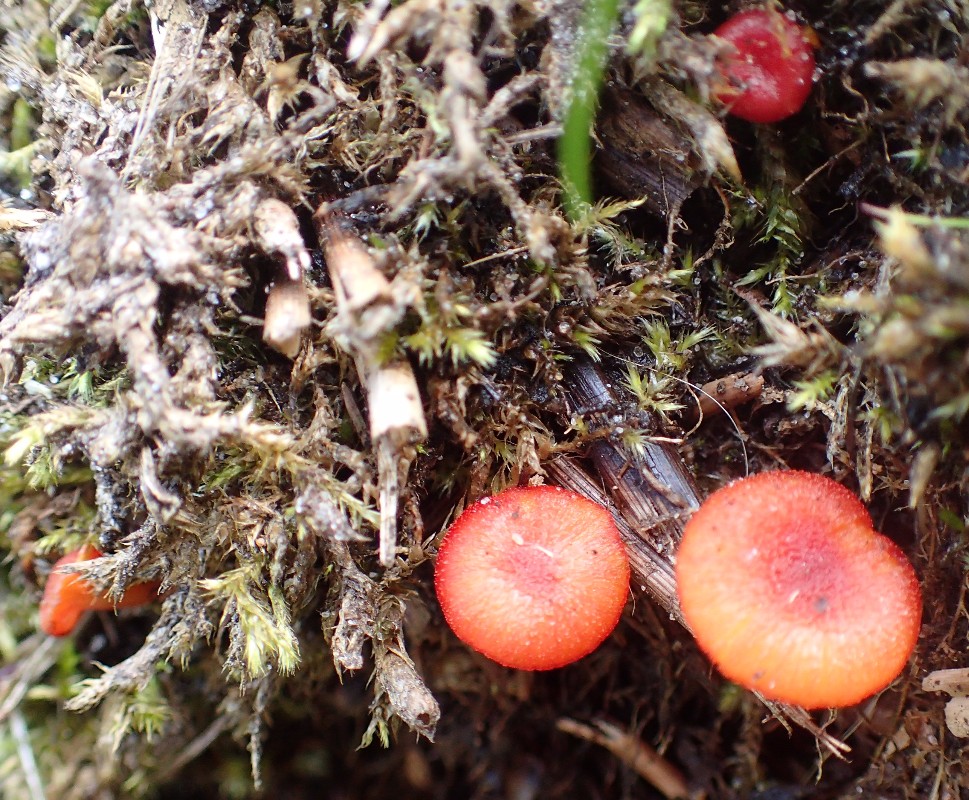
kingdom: Fungi
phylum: Basidiomycota
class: Agaricomycetes
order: Agaricales
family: Hygrophoraceae
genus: Hygrocybe
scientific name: Hygrocybe cantharellus
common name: kantarel-vokshat
